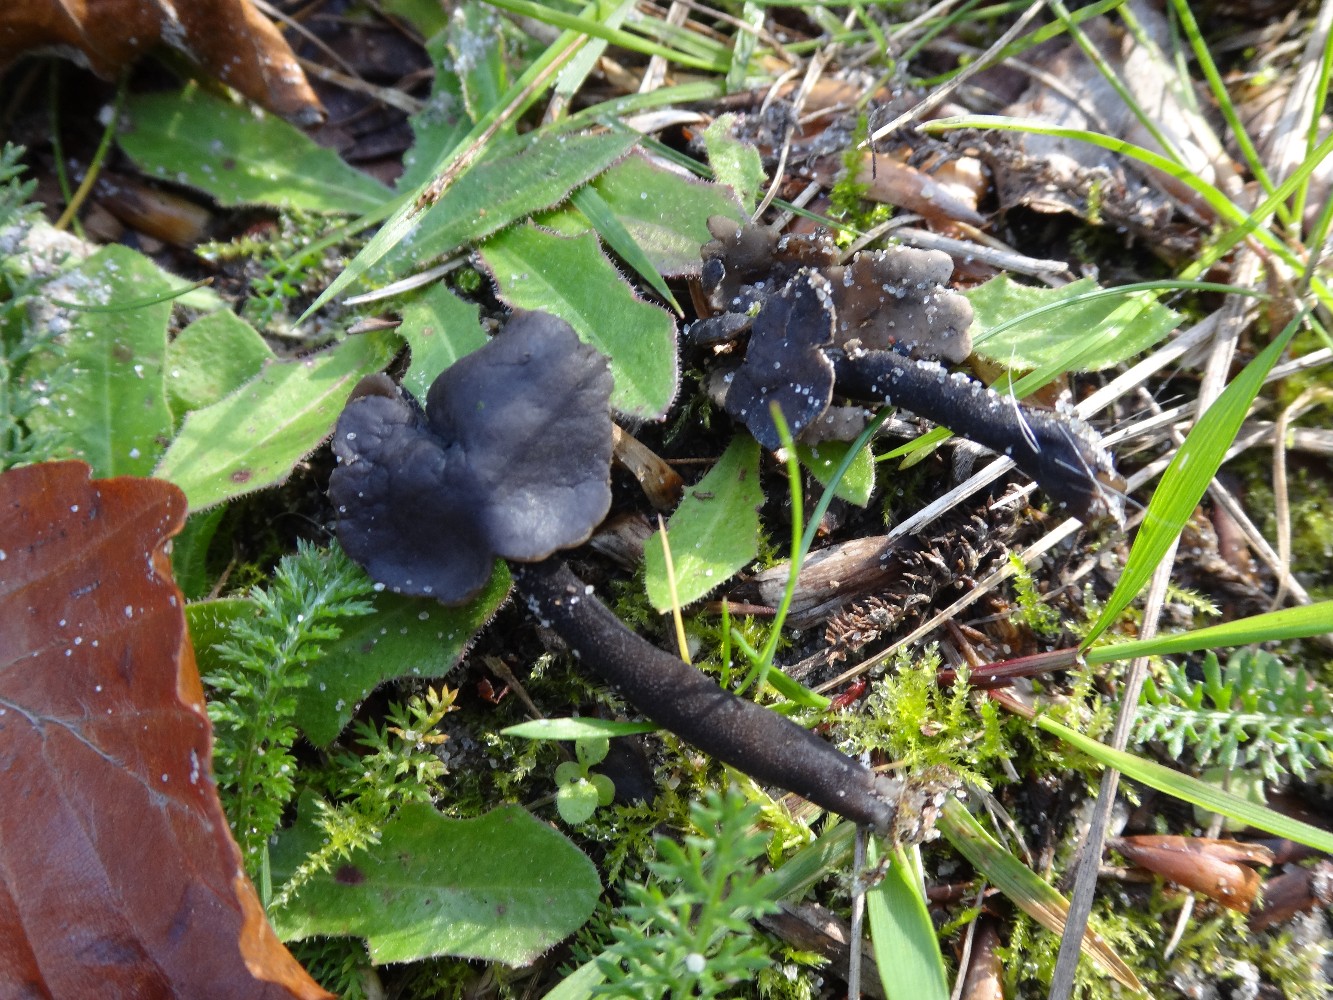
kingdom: Fungi
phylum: Ascomycota
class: Pezizomycetes
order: Pezizales
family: Helvellaceae
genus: Helvella
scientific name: Helvella atra
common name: sort foldhat
